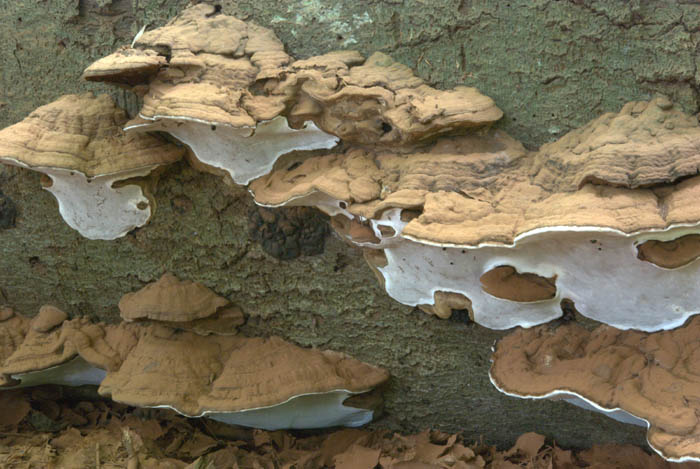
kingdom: Fungi
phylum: Basidiomycota
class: Agaricomycetes
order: Polyporales
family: Polyporaceae
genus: Ganoderma
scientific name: Ganoderma applanatum
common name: flad lakporesvamp
